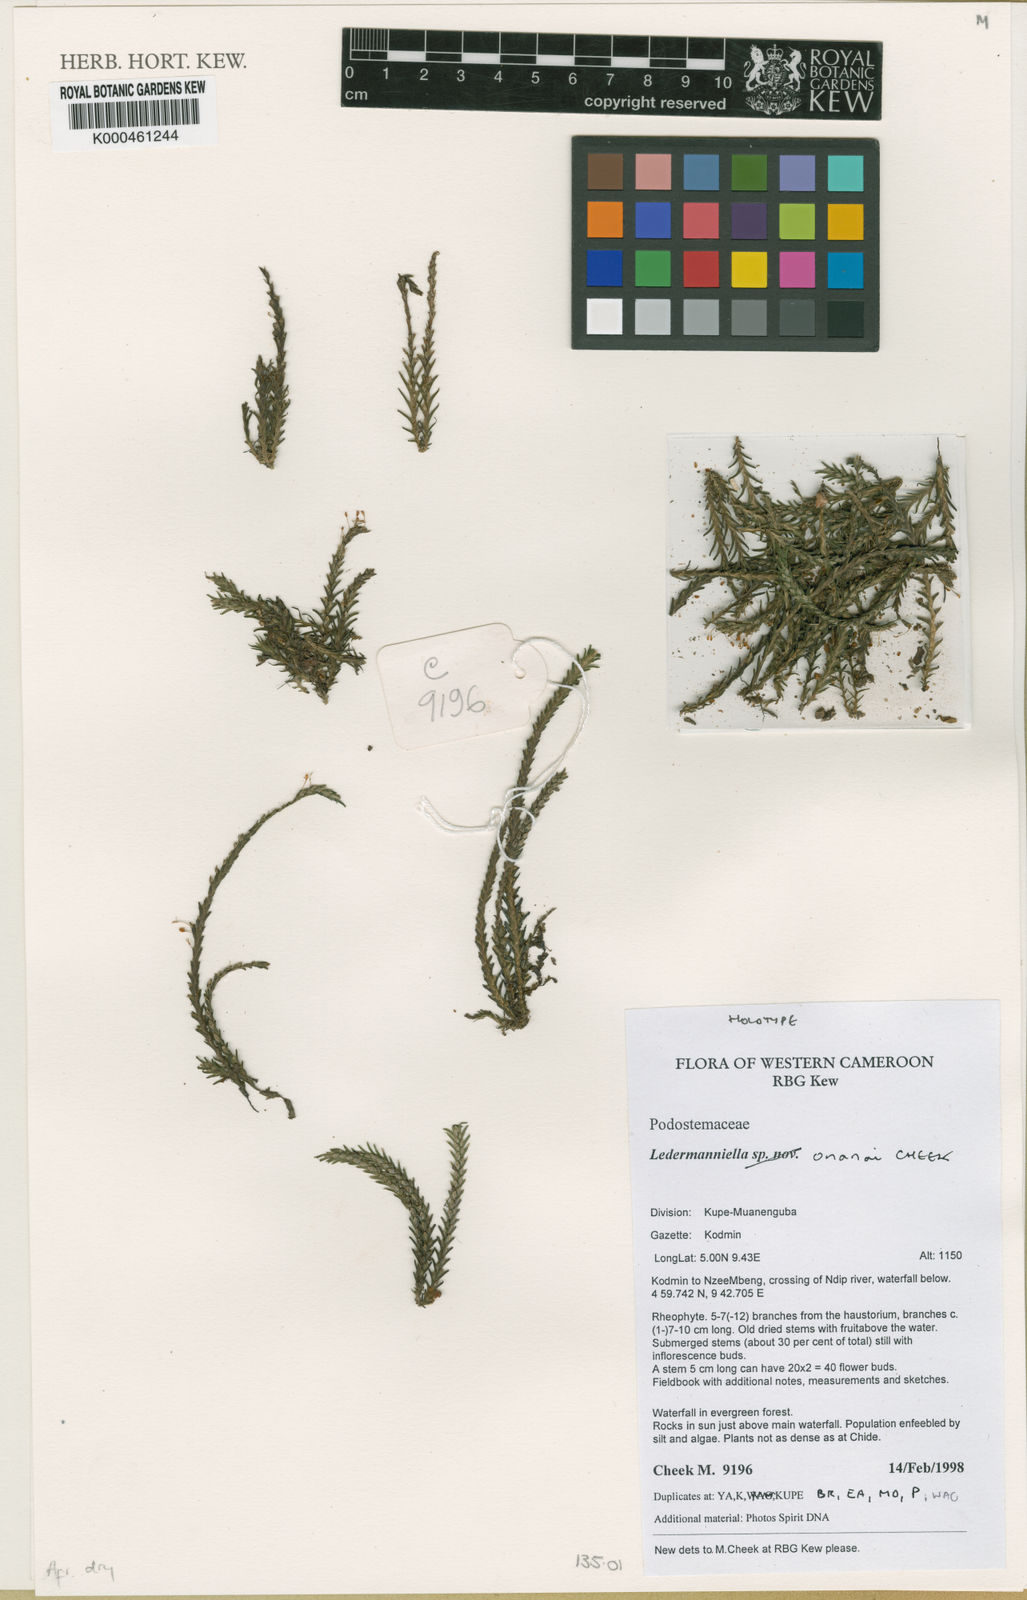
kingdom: Plantae
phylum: Tracheophyta
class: Magnoliopsida
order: Malpighiales
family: Podostemaceae
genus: Ledermanniella
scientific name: Ledermanniella onanae
